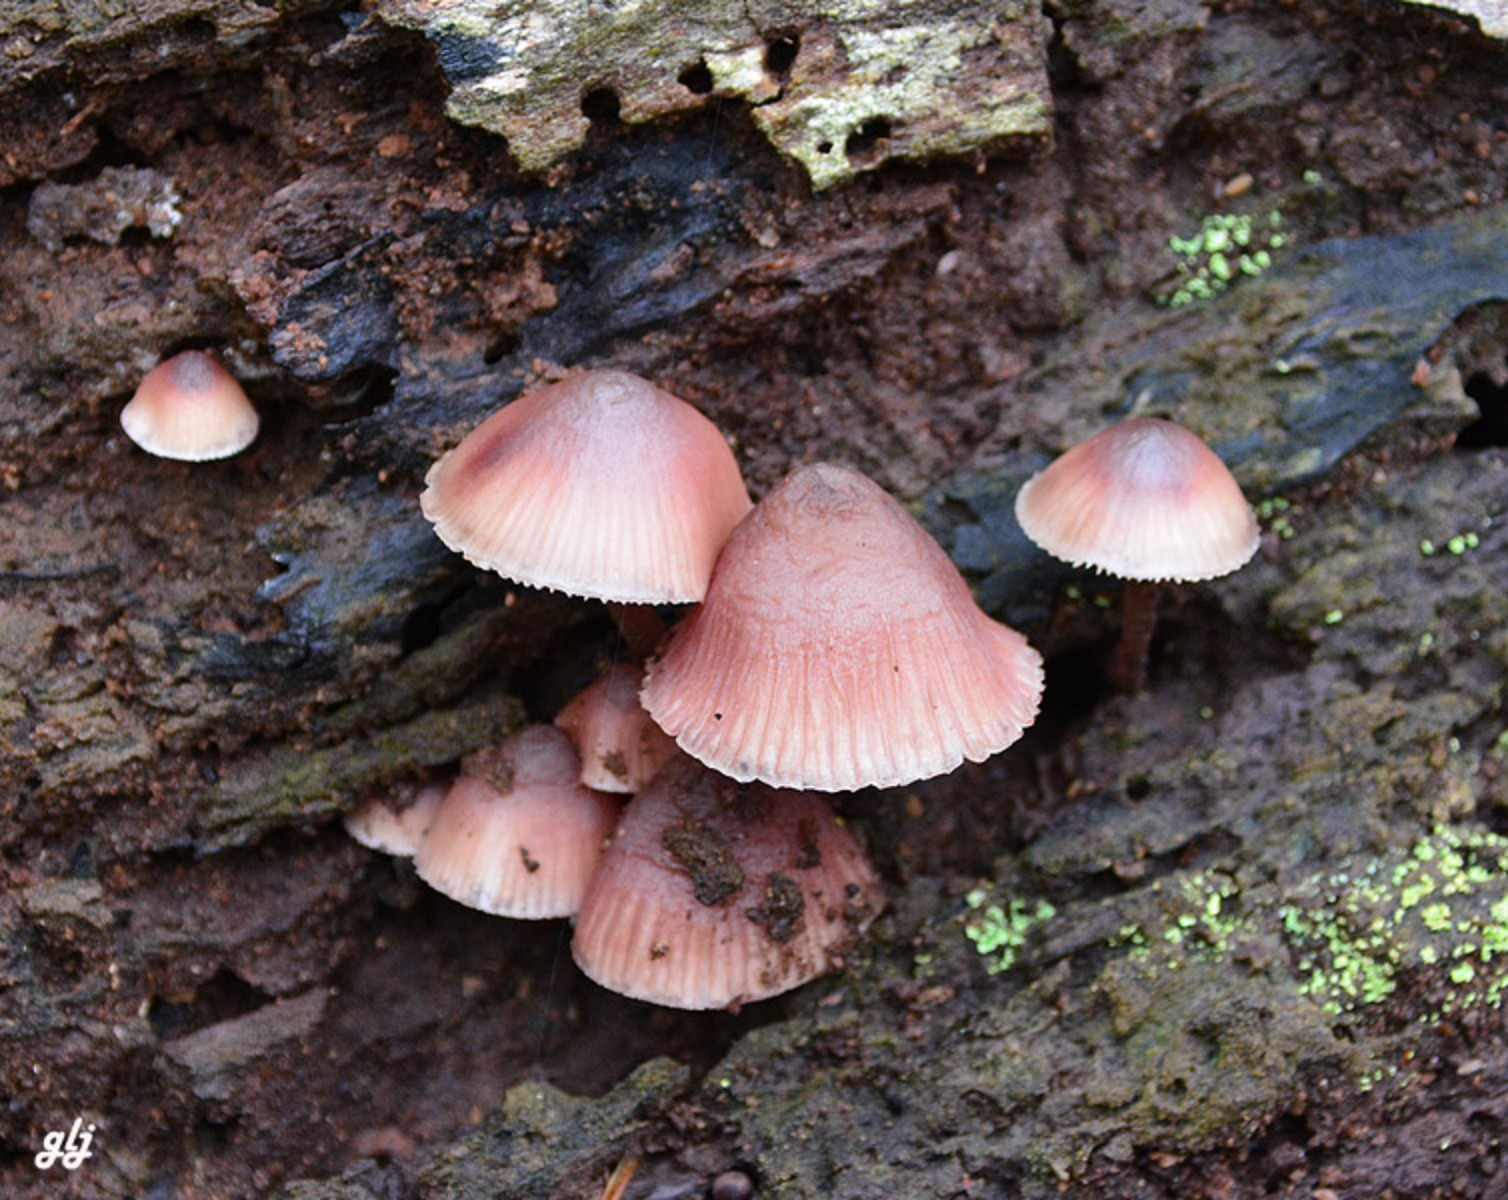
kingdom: Fungi
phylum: Basidiomycota
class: Agaricomycetes
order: Agaricales
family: Mycenaceae
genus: Mycena
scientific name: Mycena haematopus
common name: blødende huesvamp
